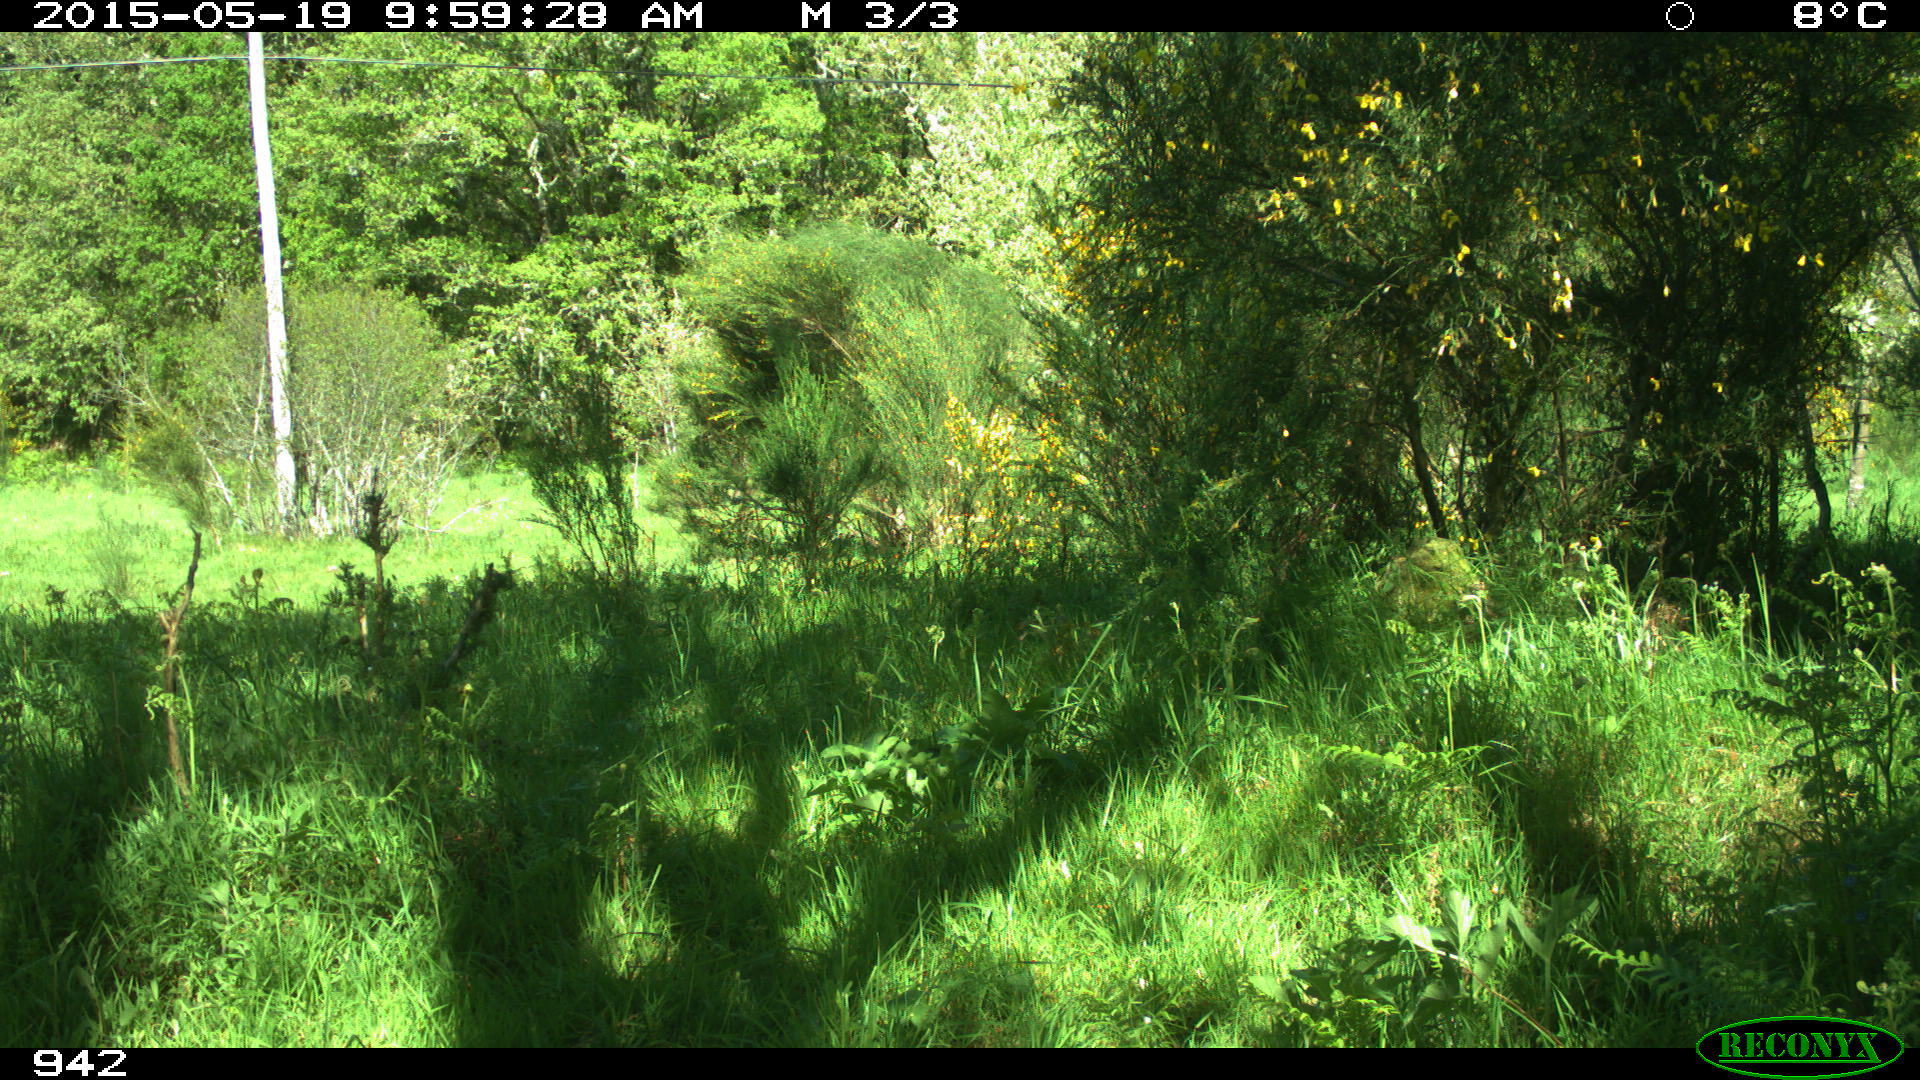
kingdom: Animalia
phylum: Chordata
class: Mammalia
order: Artiodactyla
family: Cervidae
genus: Capreolus
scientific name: Capreolus capreolus
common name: Western roe deer
